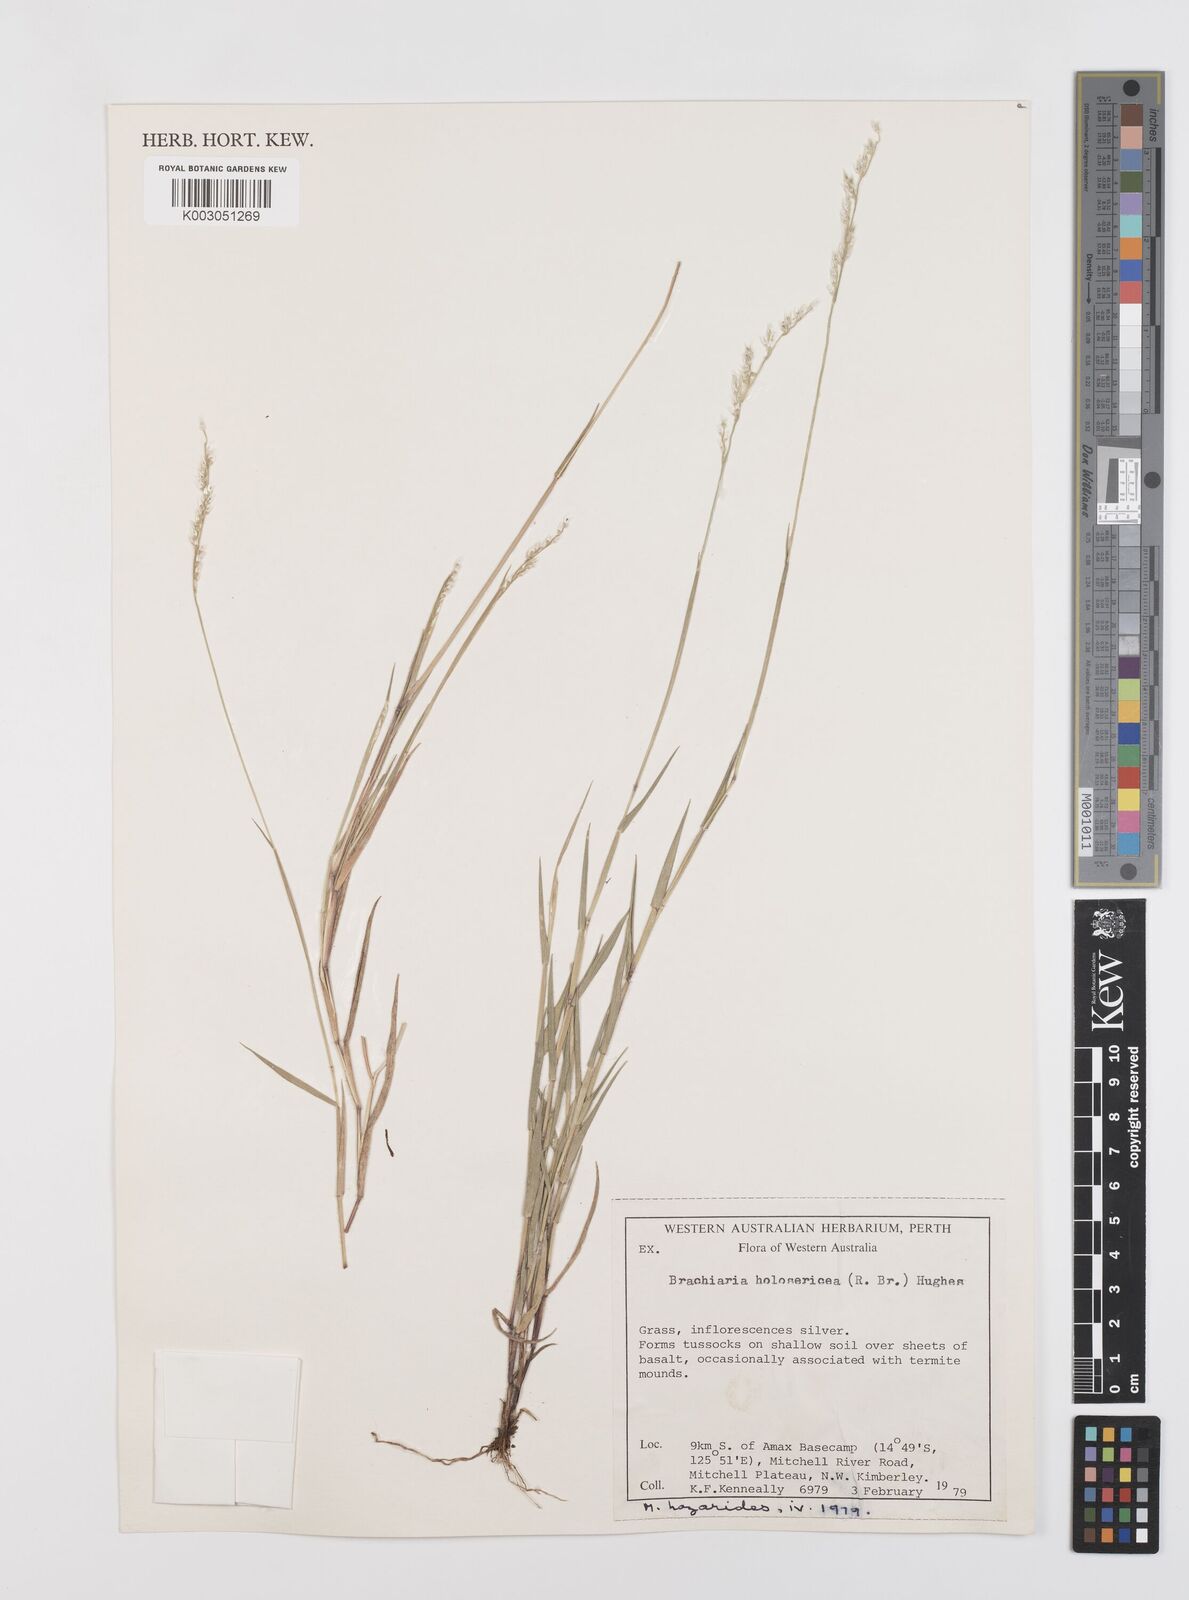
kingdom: Plantae
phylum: Tracheophyta
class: Liliopsida
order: Poales
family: Poaceae
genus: Urochloa
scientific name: Urochloa holosericea
